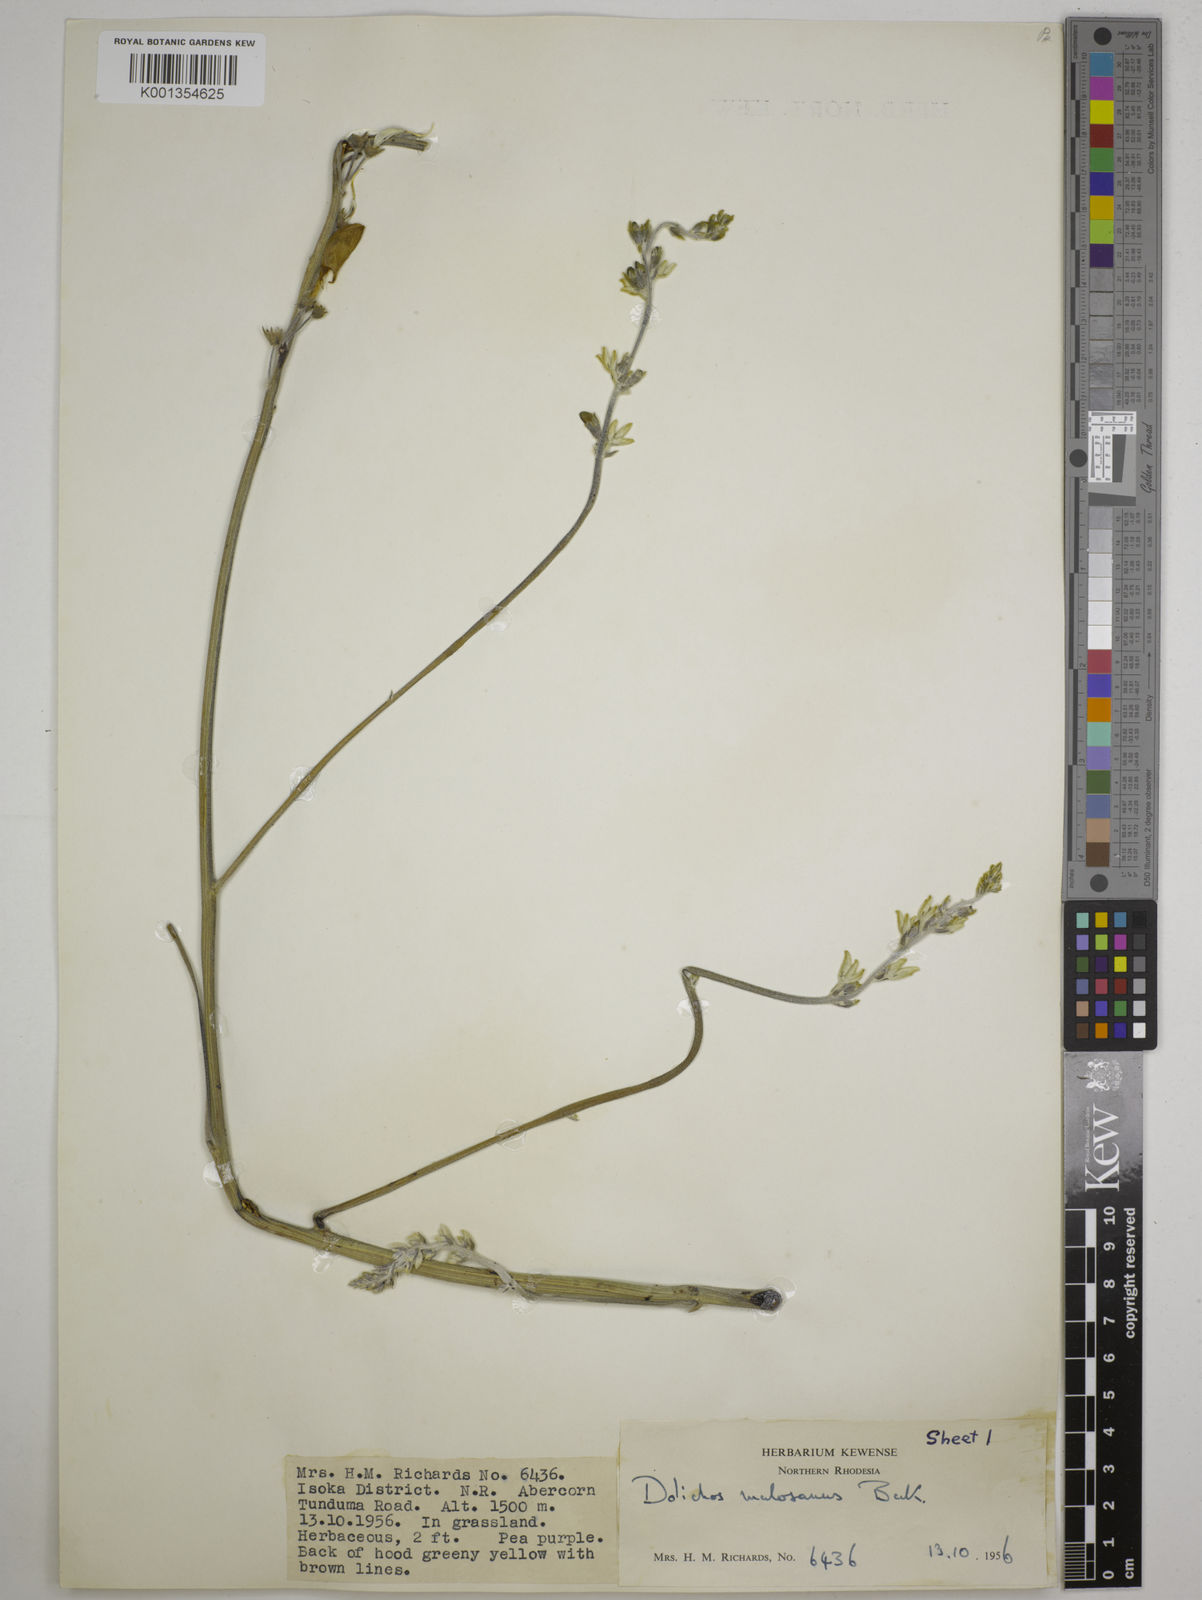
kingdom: Plantae
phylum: Tracheophyta
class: Magnoliopsida
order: Fabales
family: Fabaceae
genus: Dolichos
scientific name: Dolichos kilimandscharicus
